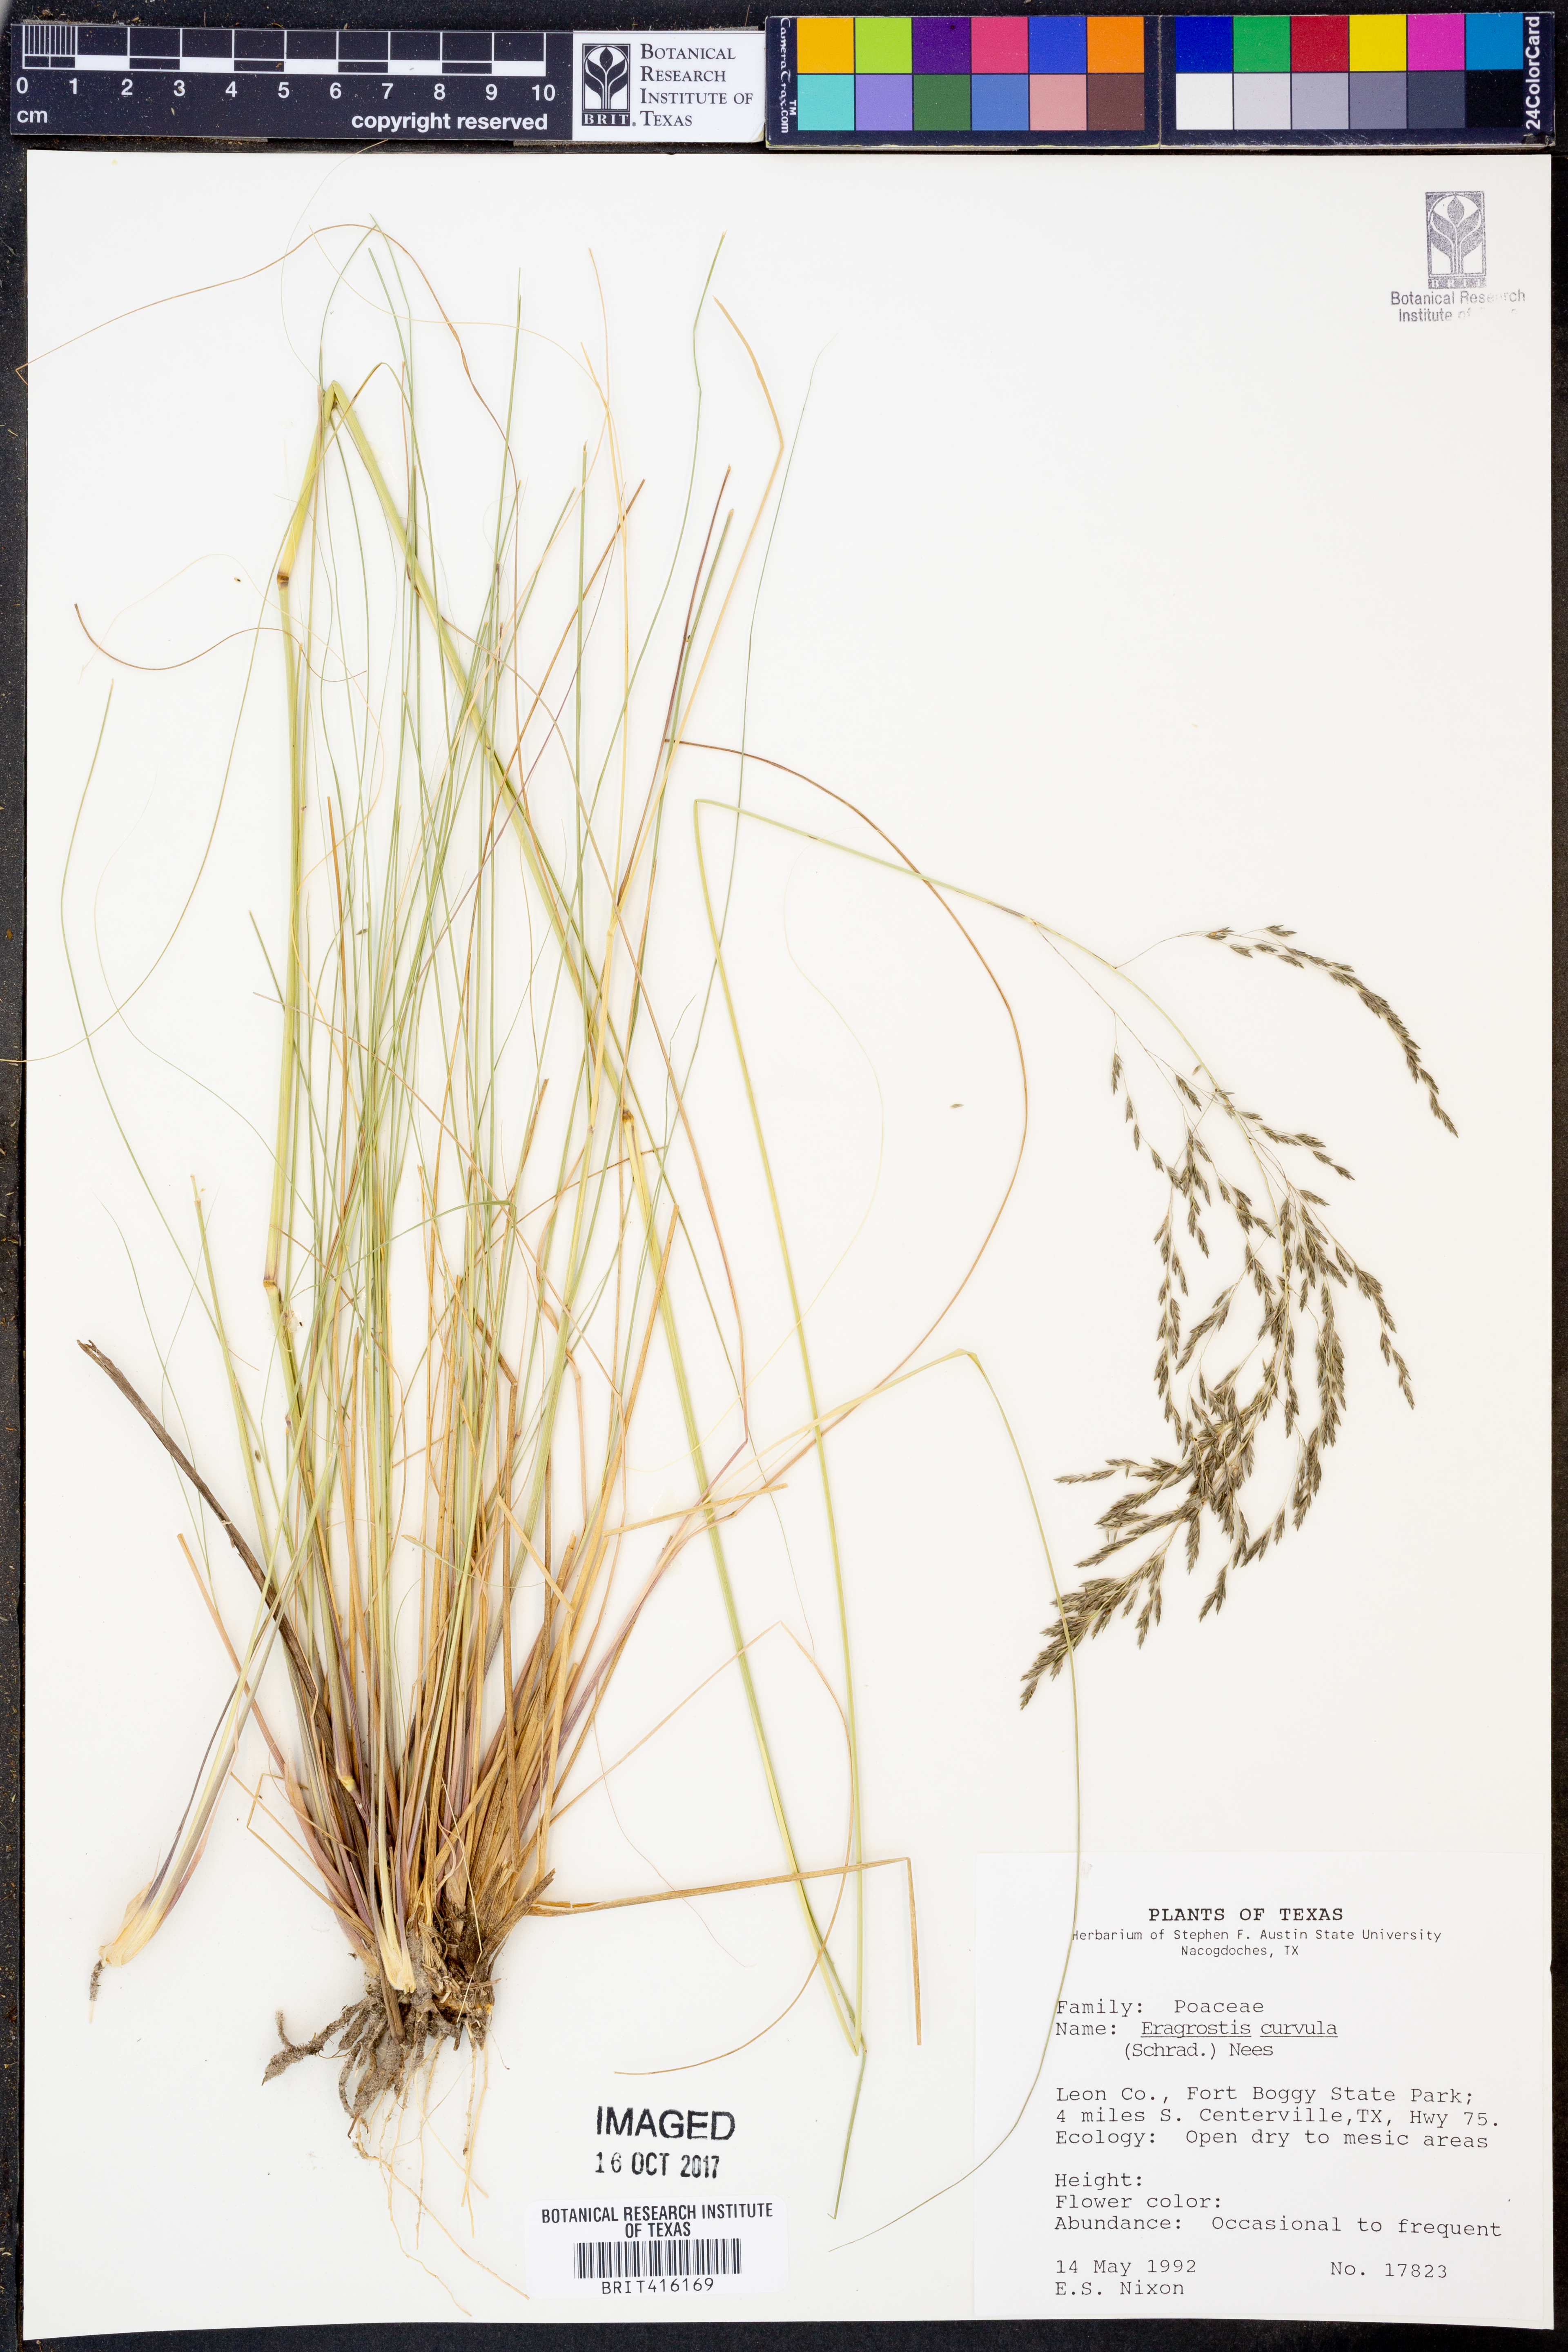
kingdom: Plantae
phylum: Tracheophyta
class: Liliopsida
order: Poales
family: Poaceae
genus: Eragrostis
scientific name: Eragrostis curvula
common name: African love-grass
